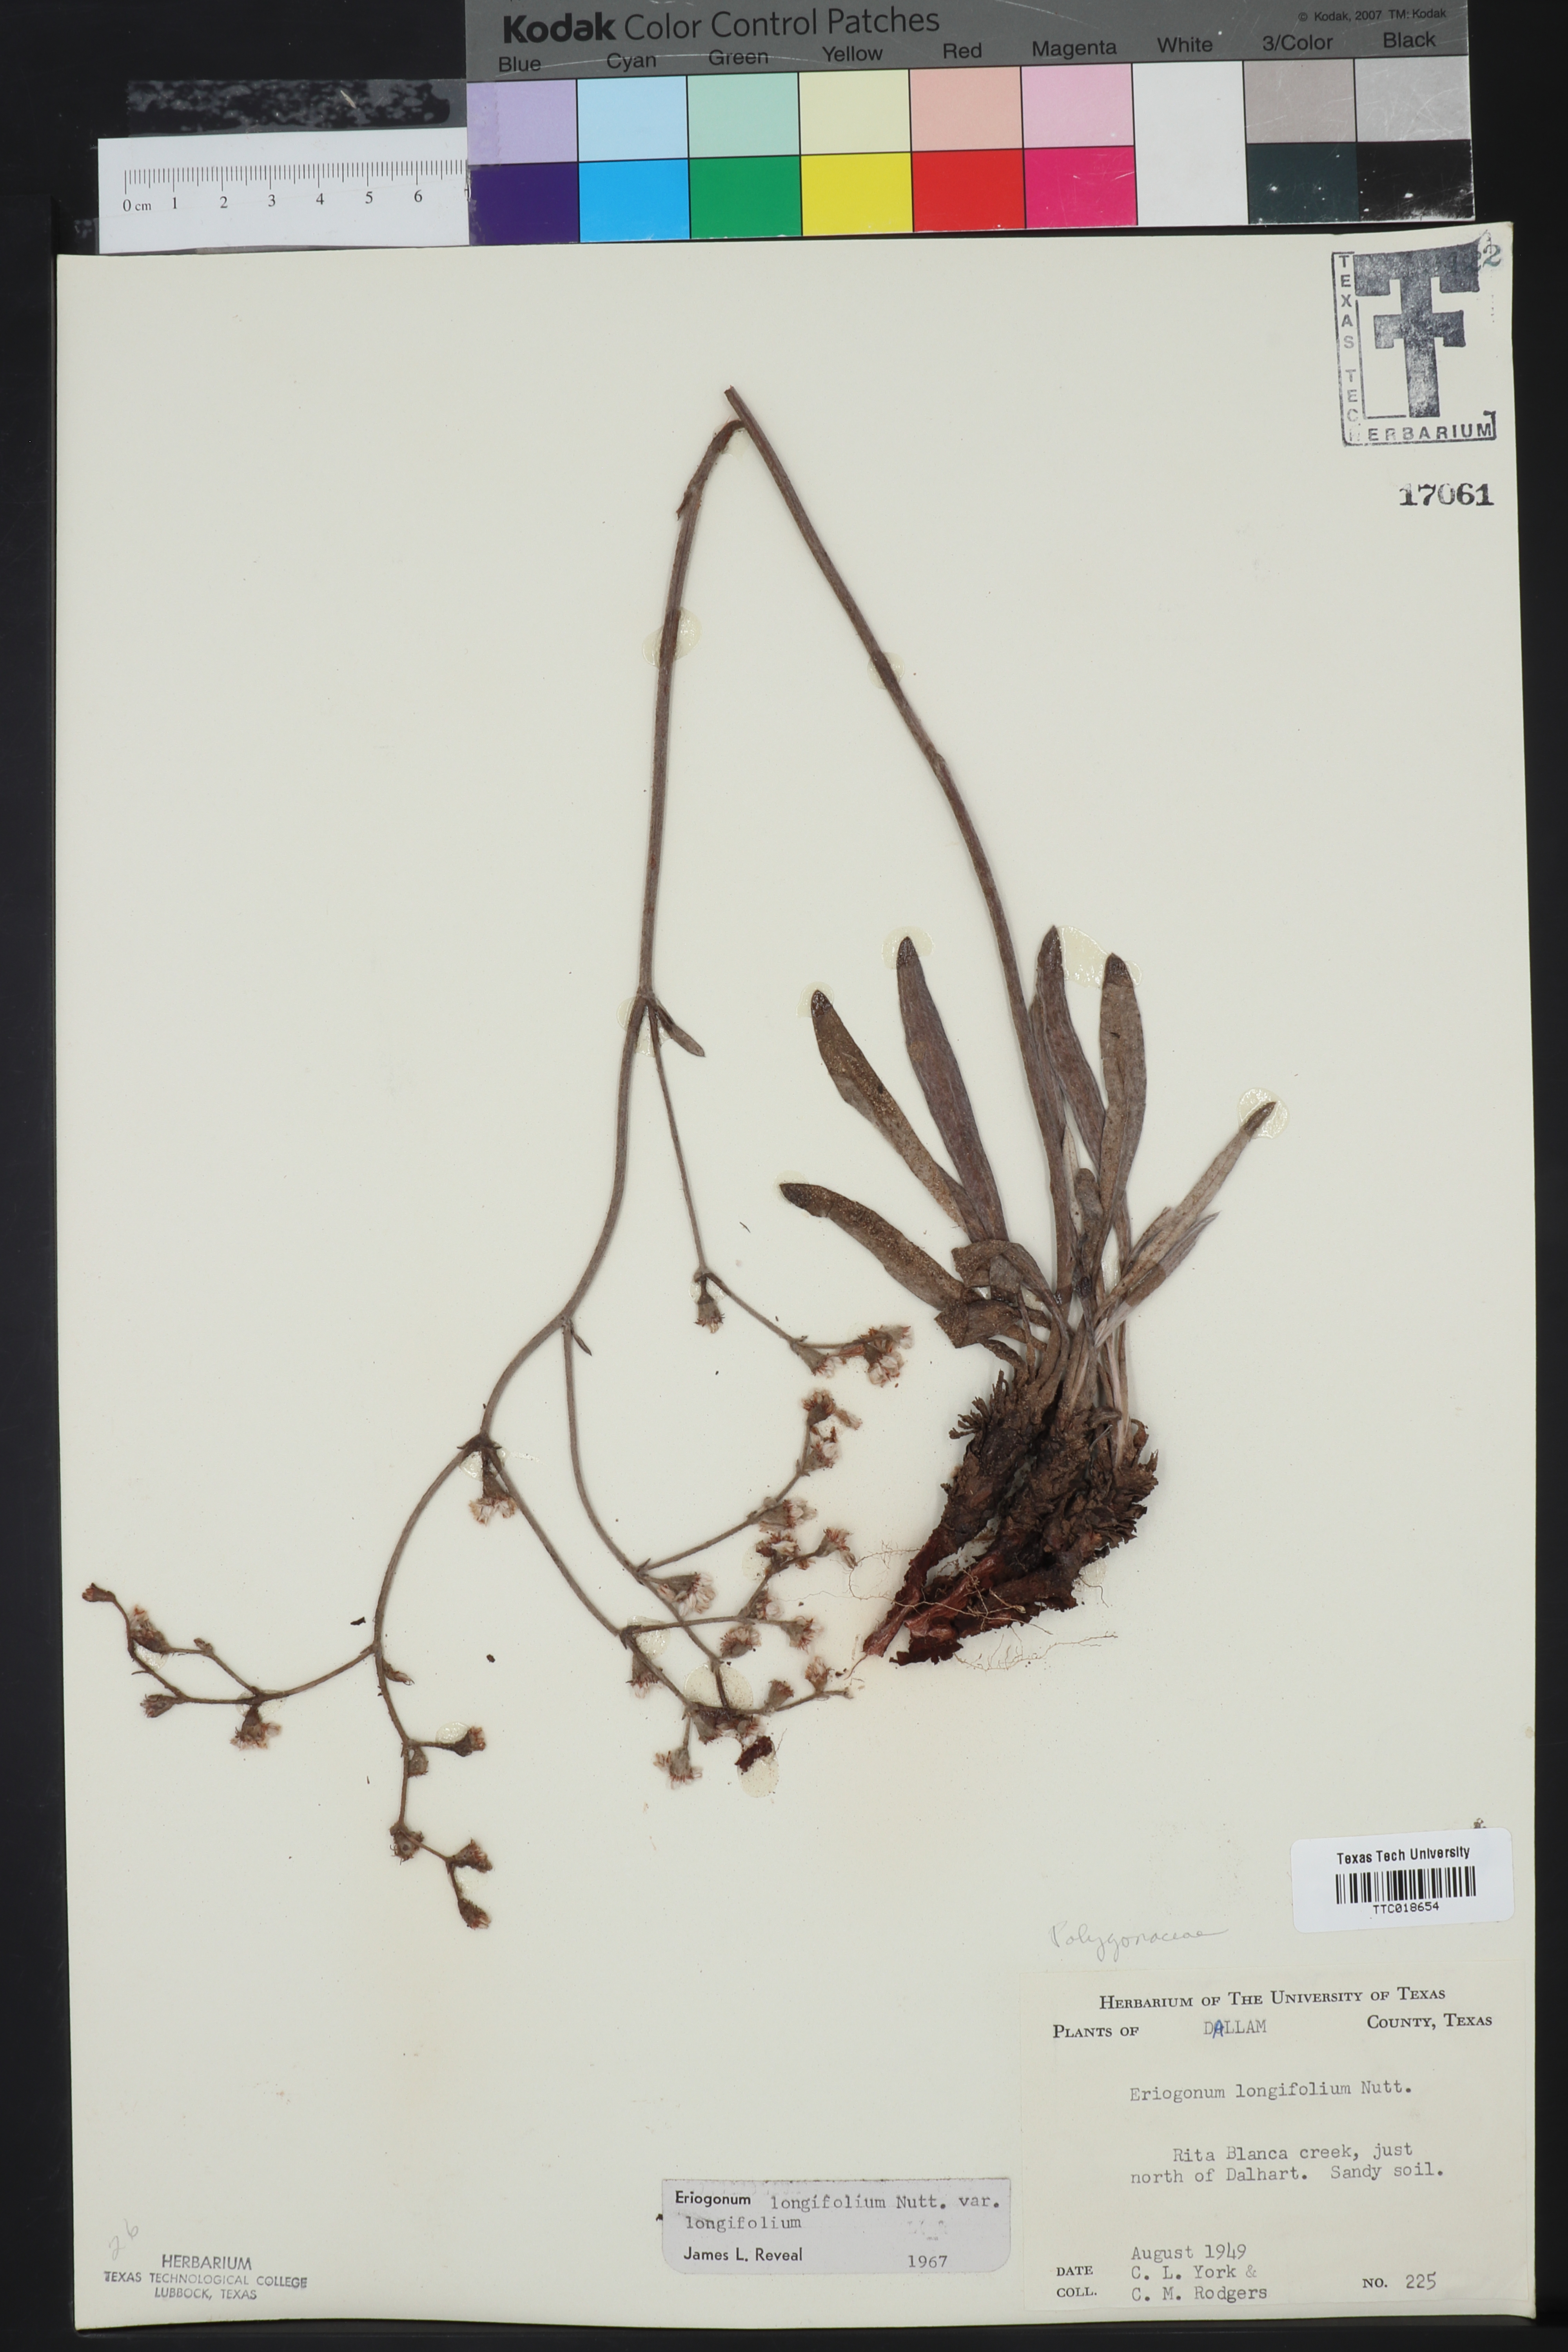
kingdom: Plantae
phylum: Tracheophyta
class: Magnoliopsida
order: Caryophyllales
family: Polygonaceae
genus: Eriogonum
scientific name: Eriogonum longifolium
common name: Longleaf wild buckwheat
